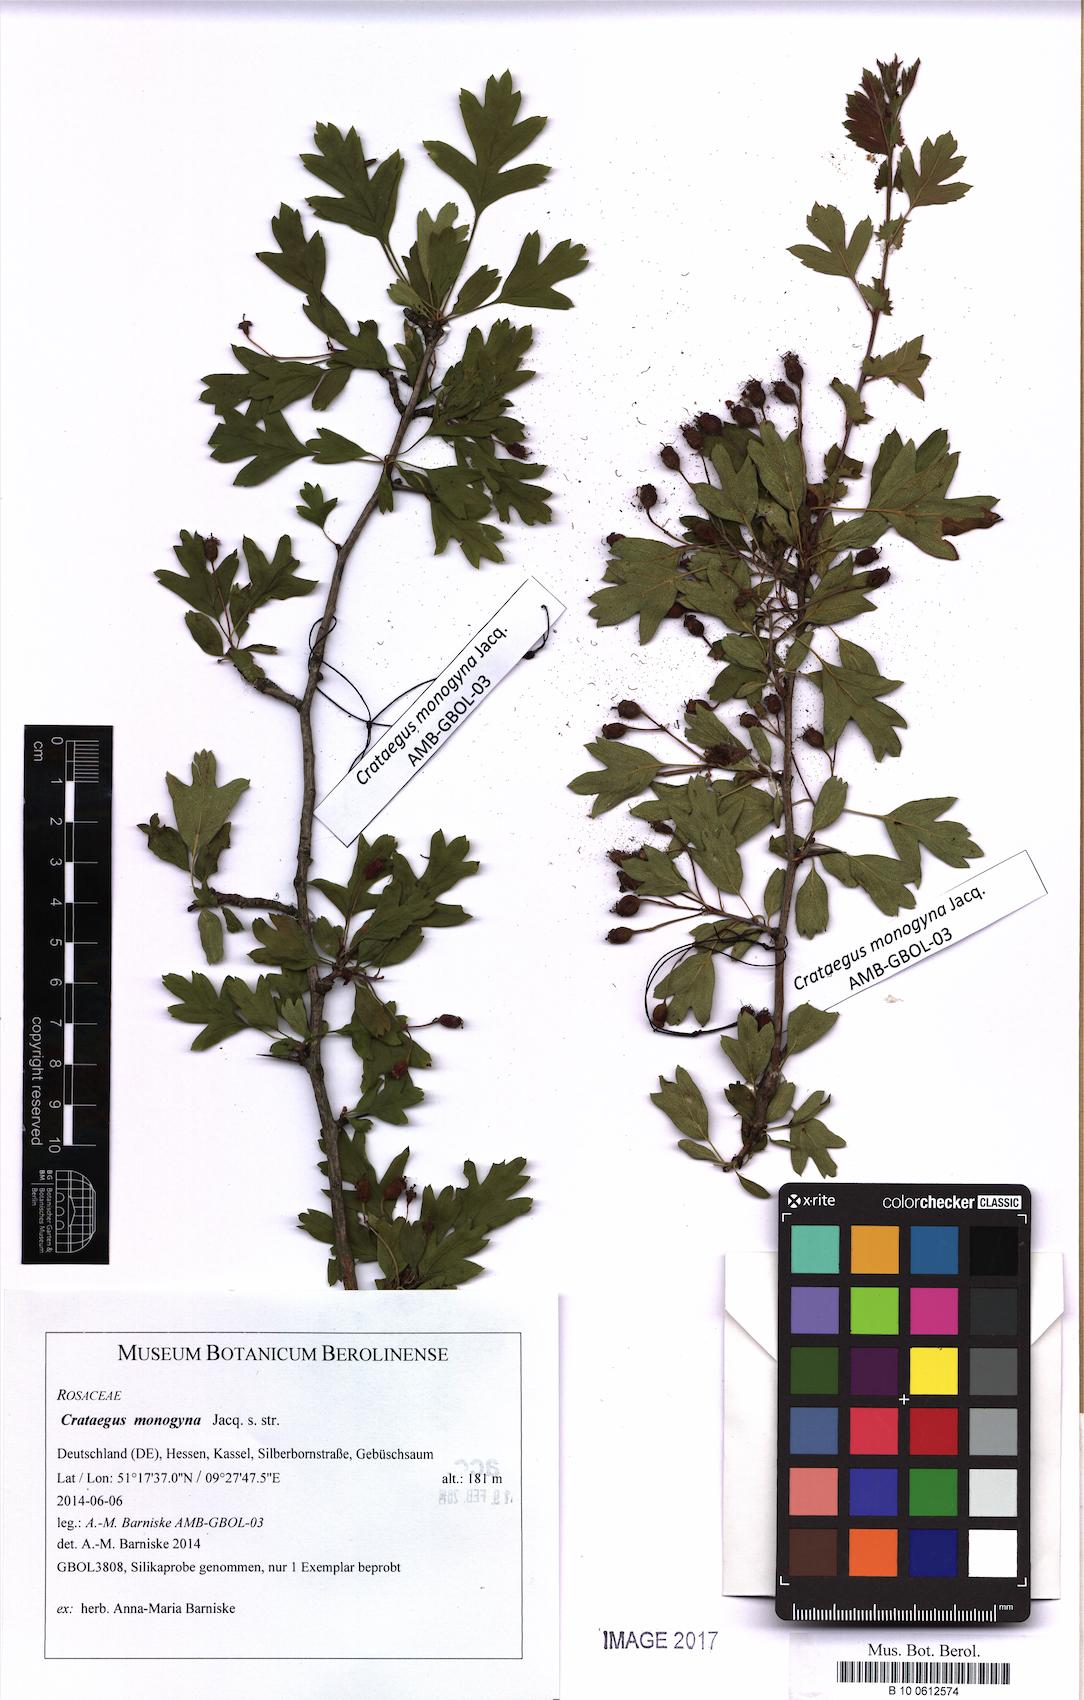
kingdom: Plantae
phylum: Tracheophyta
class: Magnoliopsida
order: Rosales
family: Rosaceae
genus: Crataegus
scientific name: Crataegus monogyna
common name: Hawthorn
